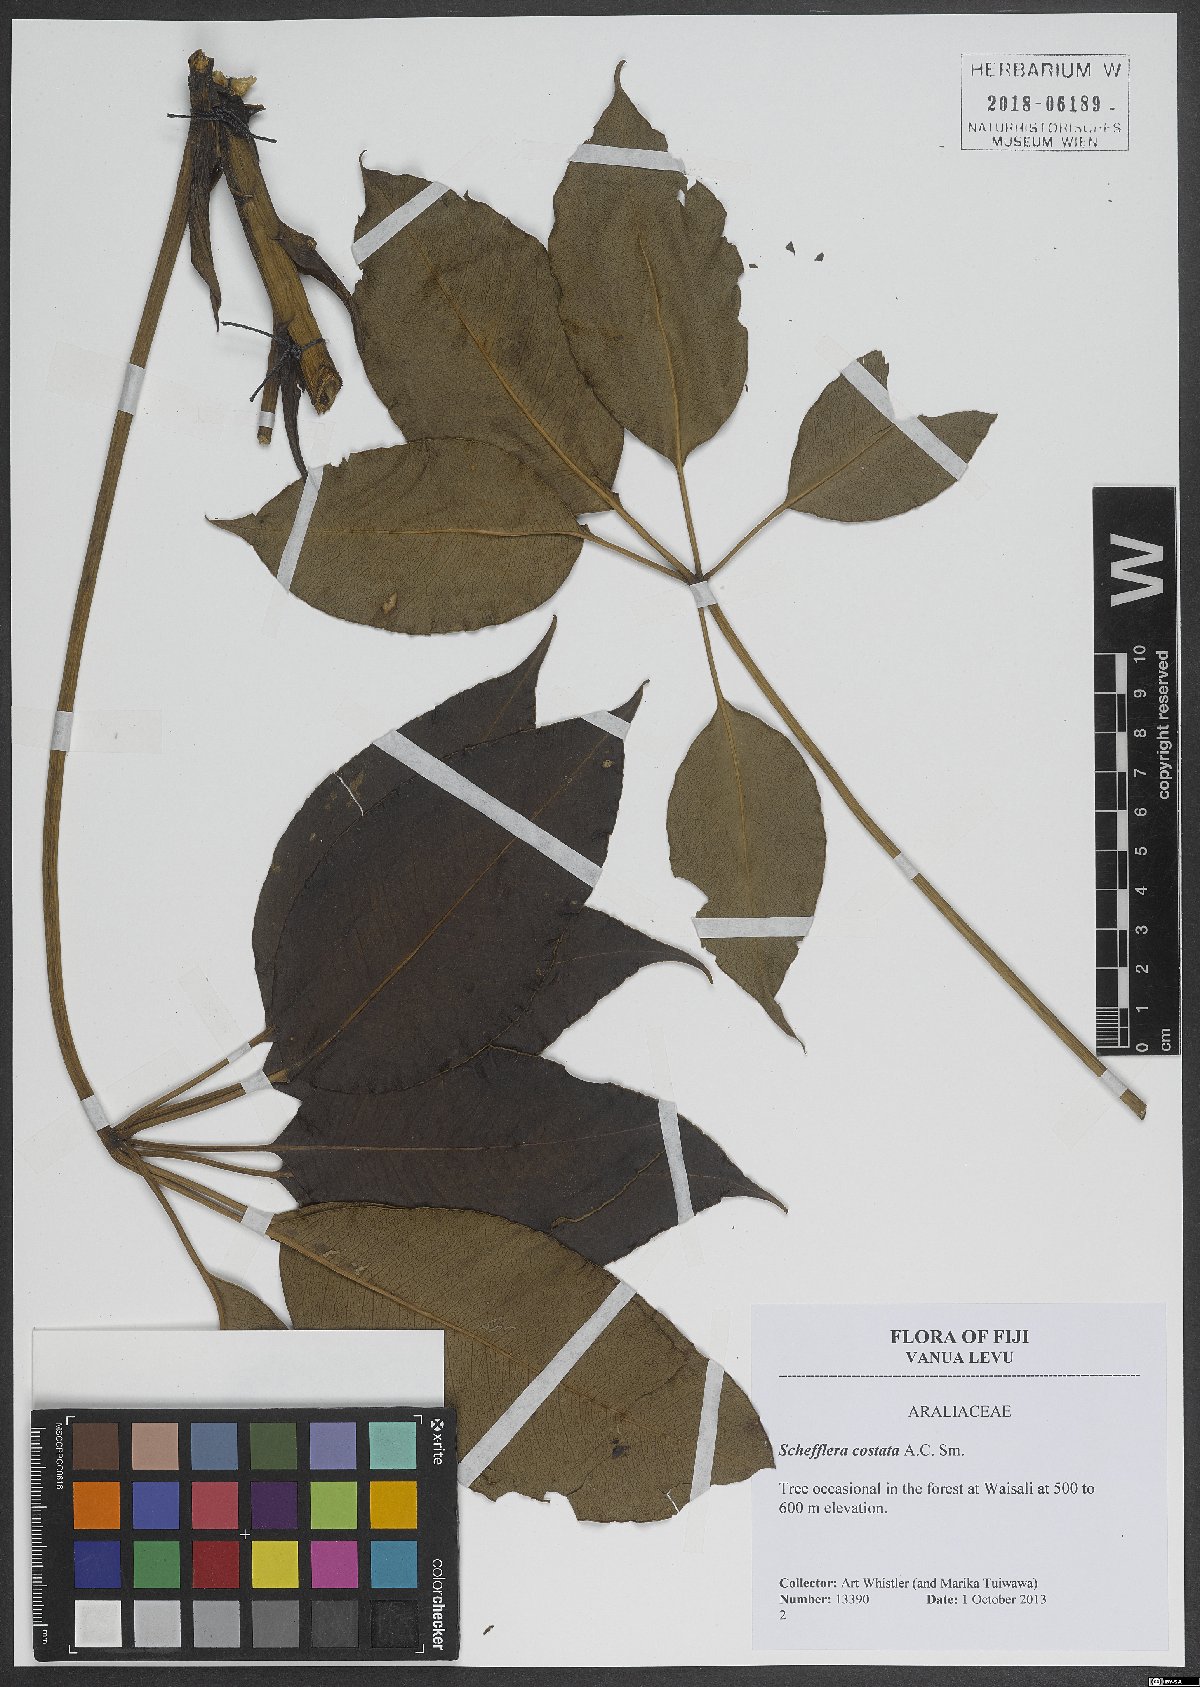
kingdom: Plantae
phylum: Tracheophyta
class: Magnoliopsida
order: Apiales
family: Araliaceae
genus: Plerandra
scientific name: Plerandra costata
